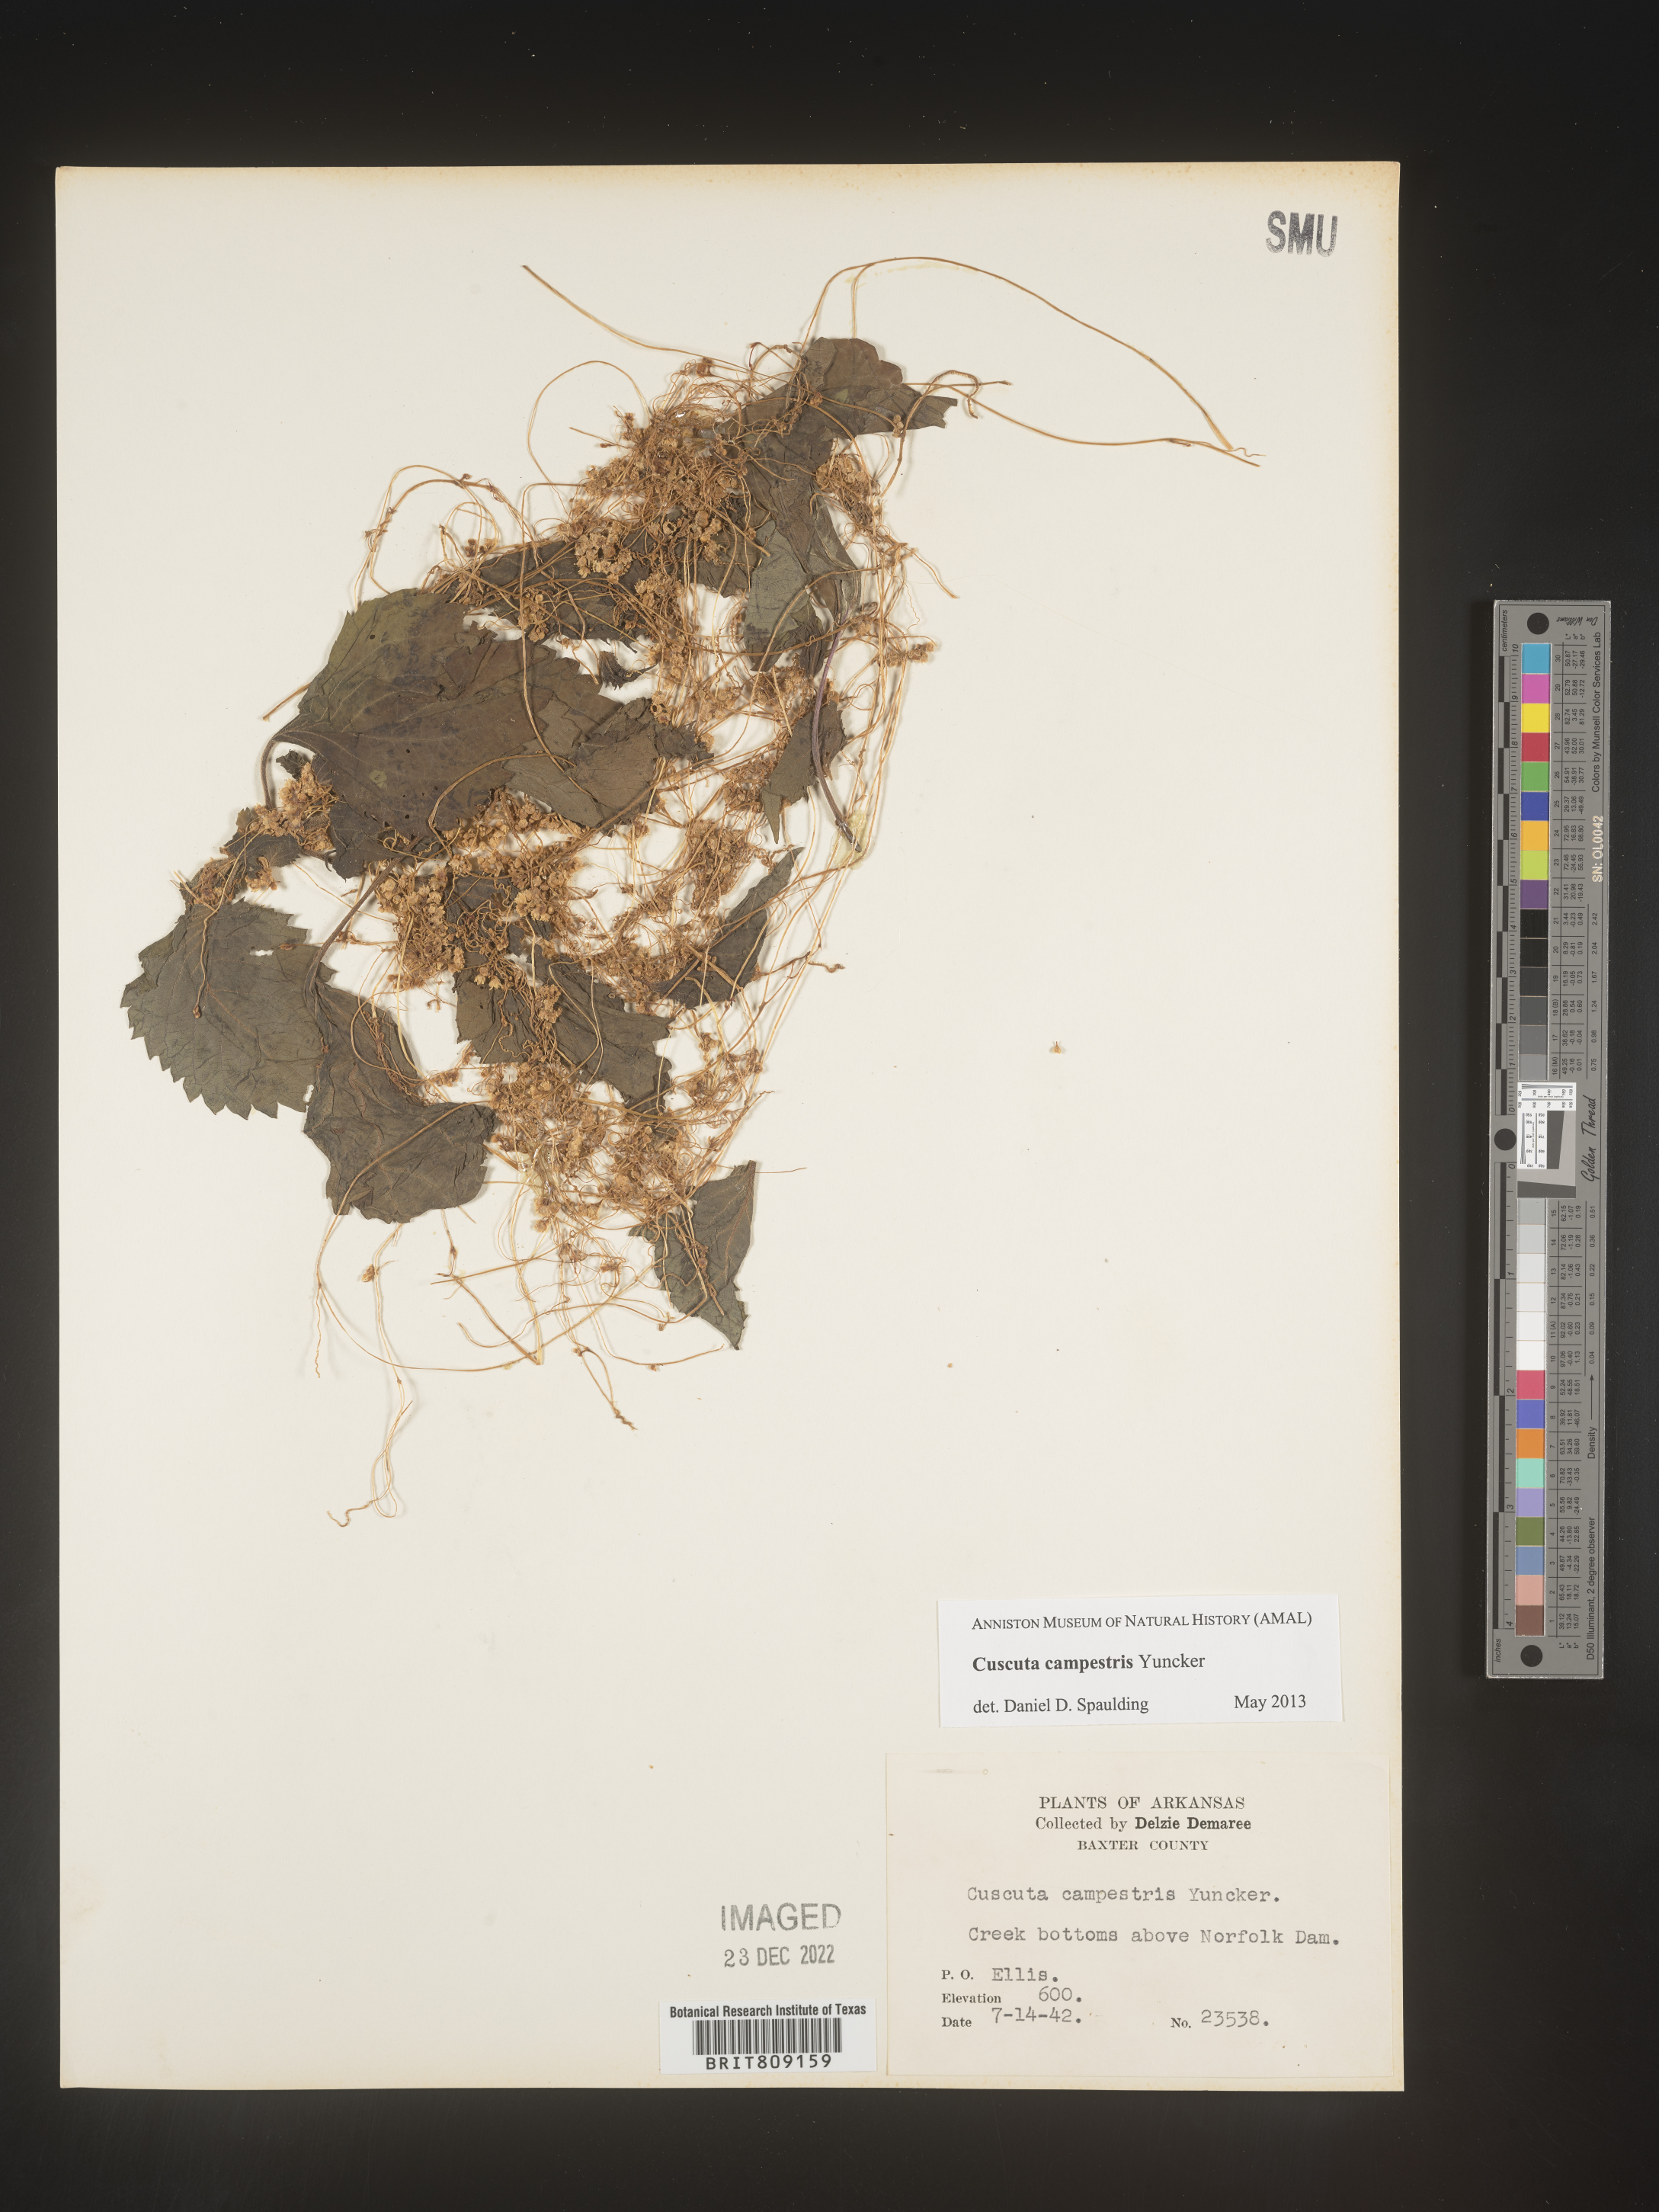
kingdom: Plantae
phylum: Tracheophyta
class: Magnoliopsida
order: Solanales
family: Convolvulaceae
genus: Cuscuta
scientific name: Cuscuta campestris
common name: Yellow dodder
